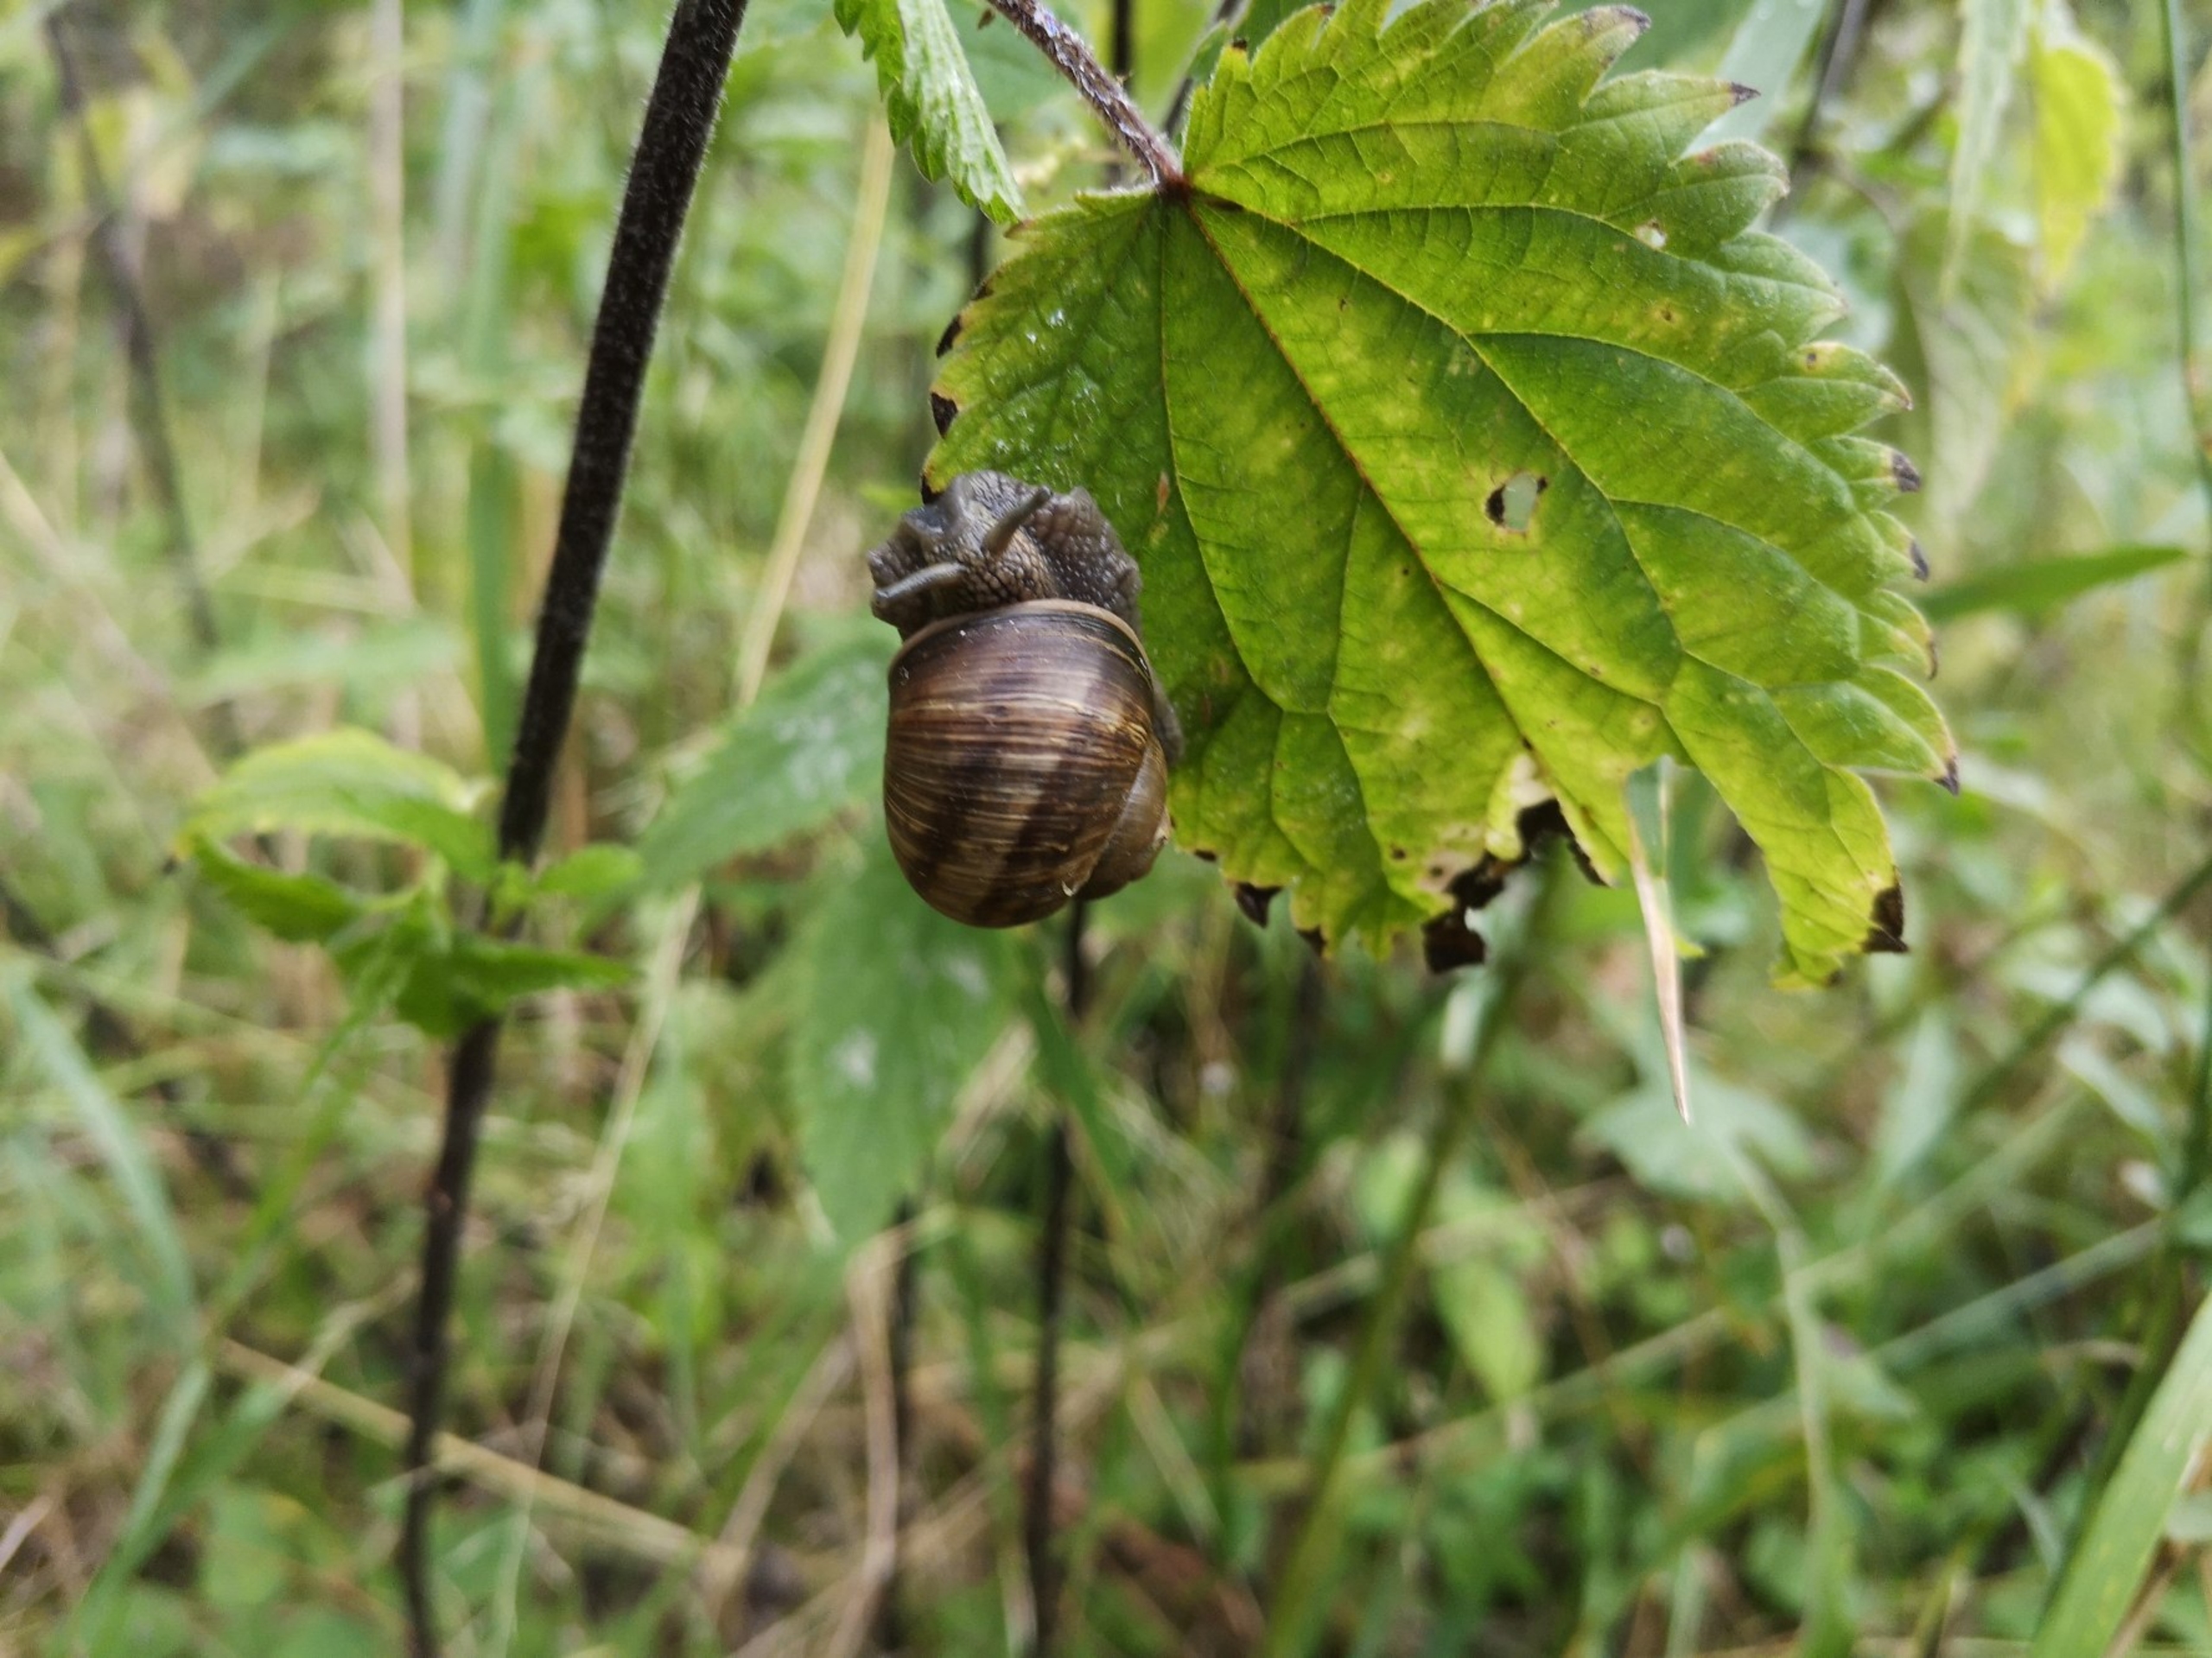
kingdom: Animalia
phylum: Mollusca
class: Gastropoda
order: Stylommatophora
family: Helicidae
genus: Helix
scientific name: Helix pomatia
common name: Vinbjergsnegl
